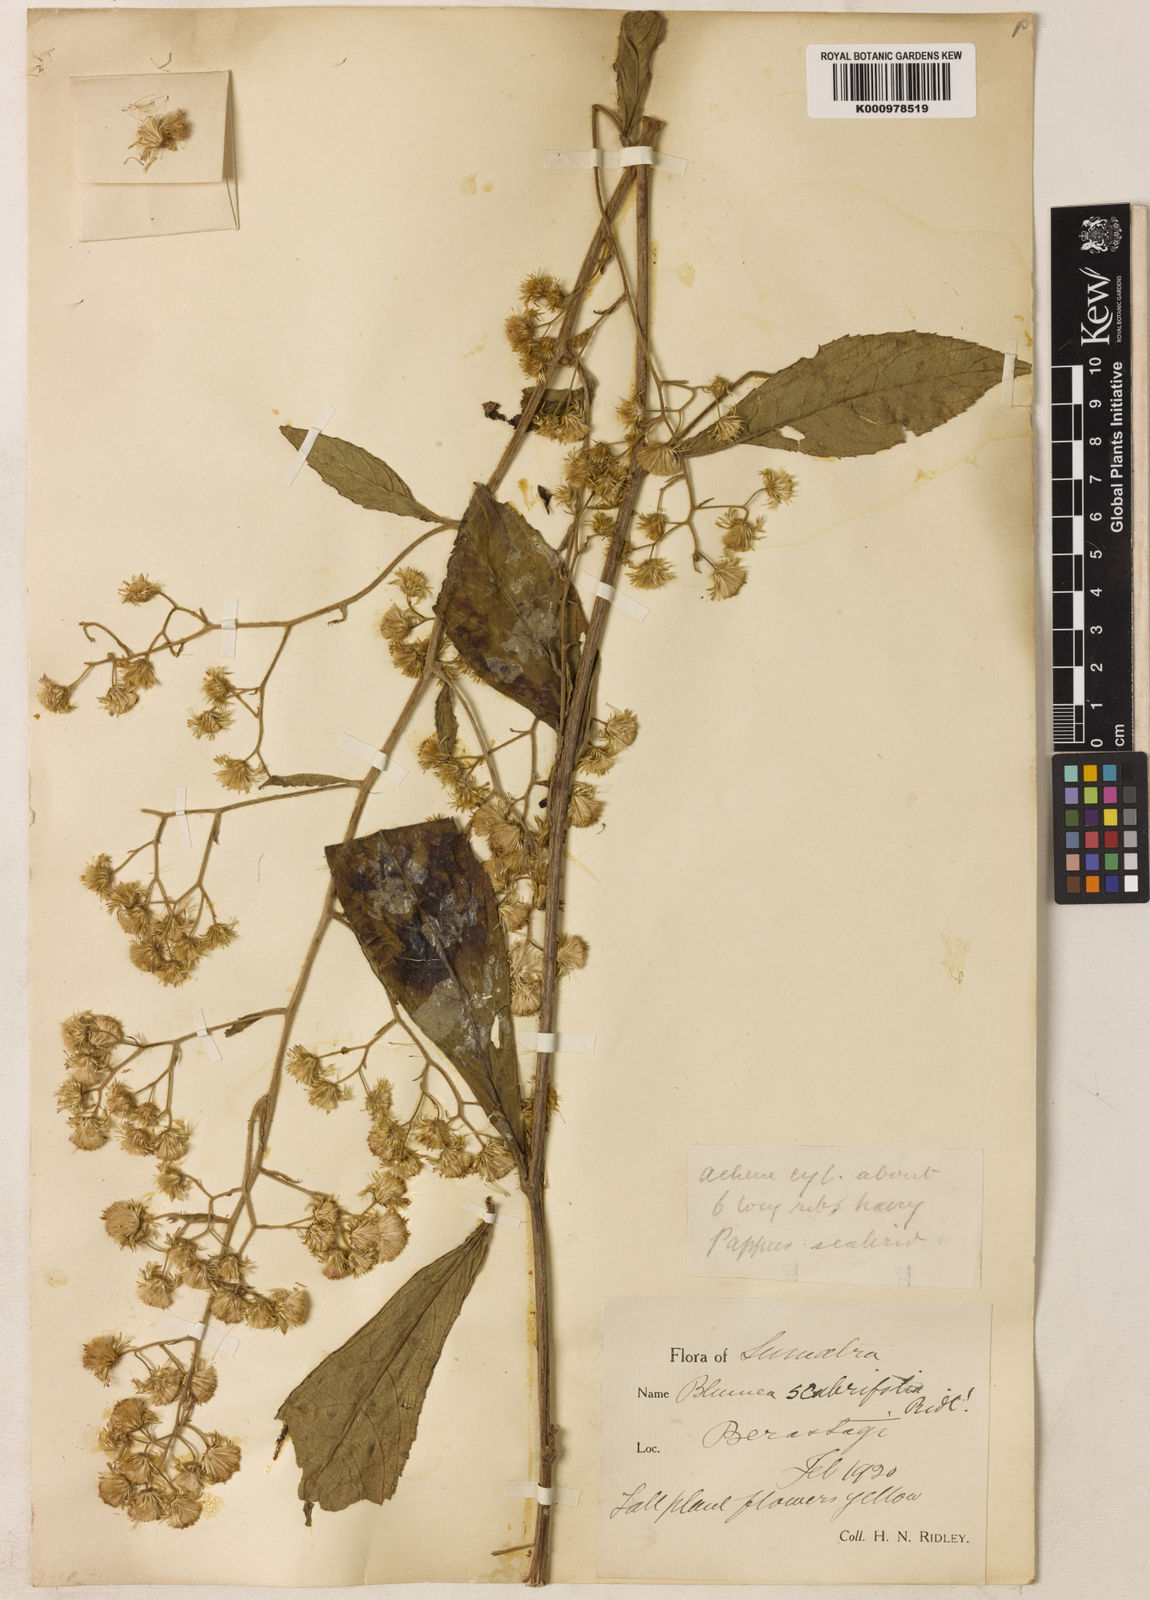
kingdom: Plantae
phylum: Tracheophyta
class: Magnoliopsida
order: Asterales
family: Asteraceae
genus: Blumea
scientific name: Blumea scabrifolia
